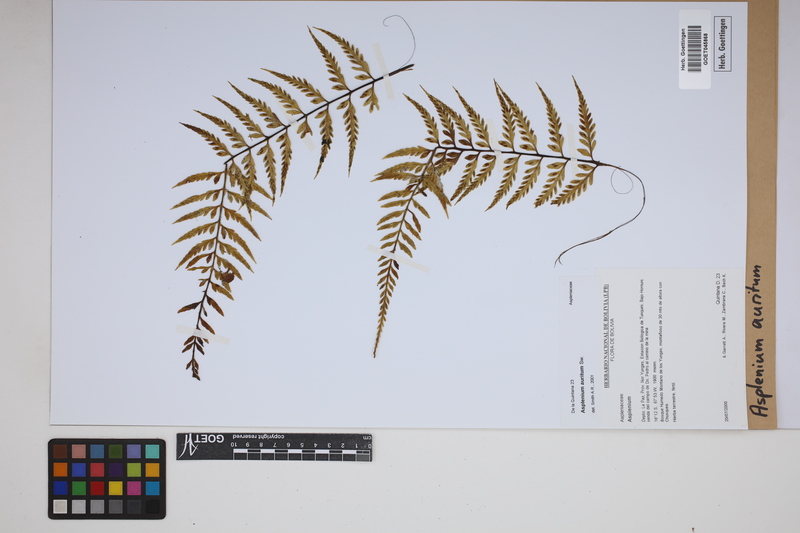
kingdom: Plantae
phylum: Tracheophyta
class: Polypodiopsida
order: Polypodiales
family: Aspleniaceae
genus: Asplenium
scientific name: Asplenium auritum
